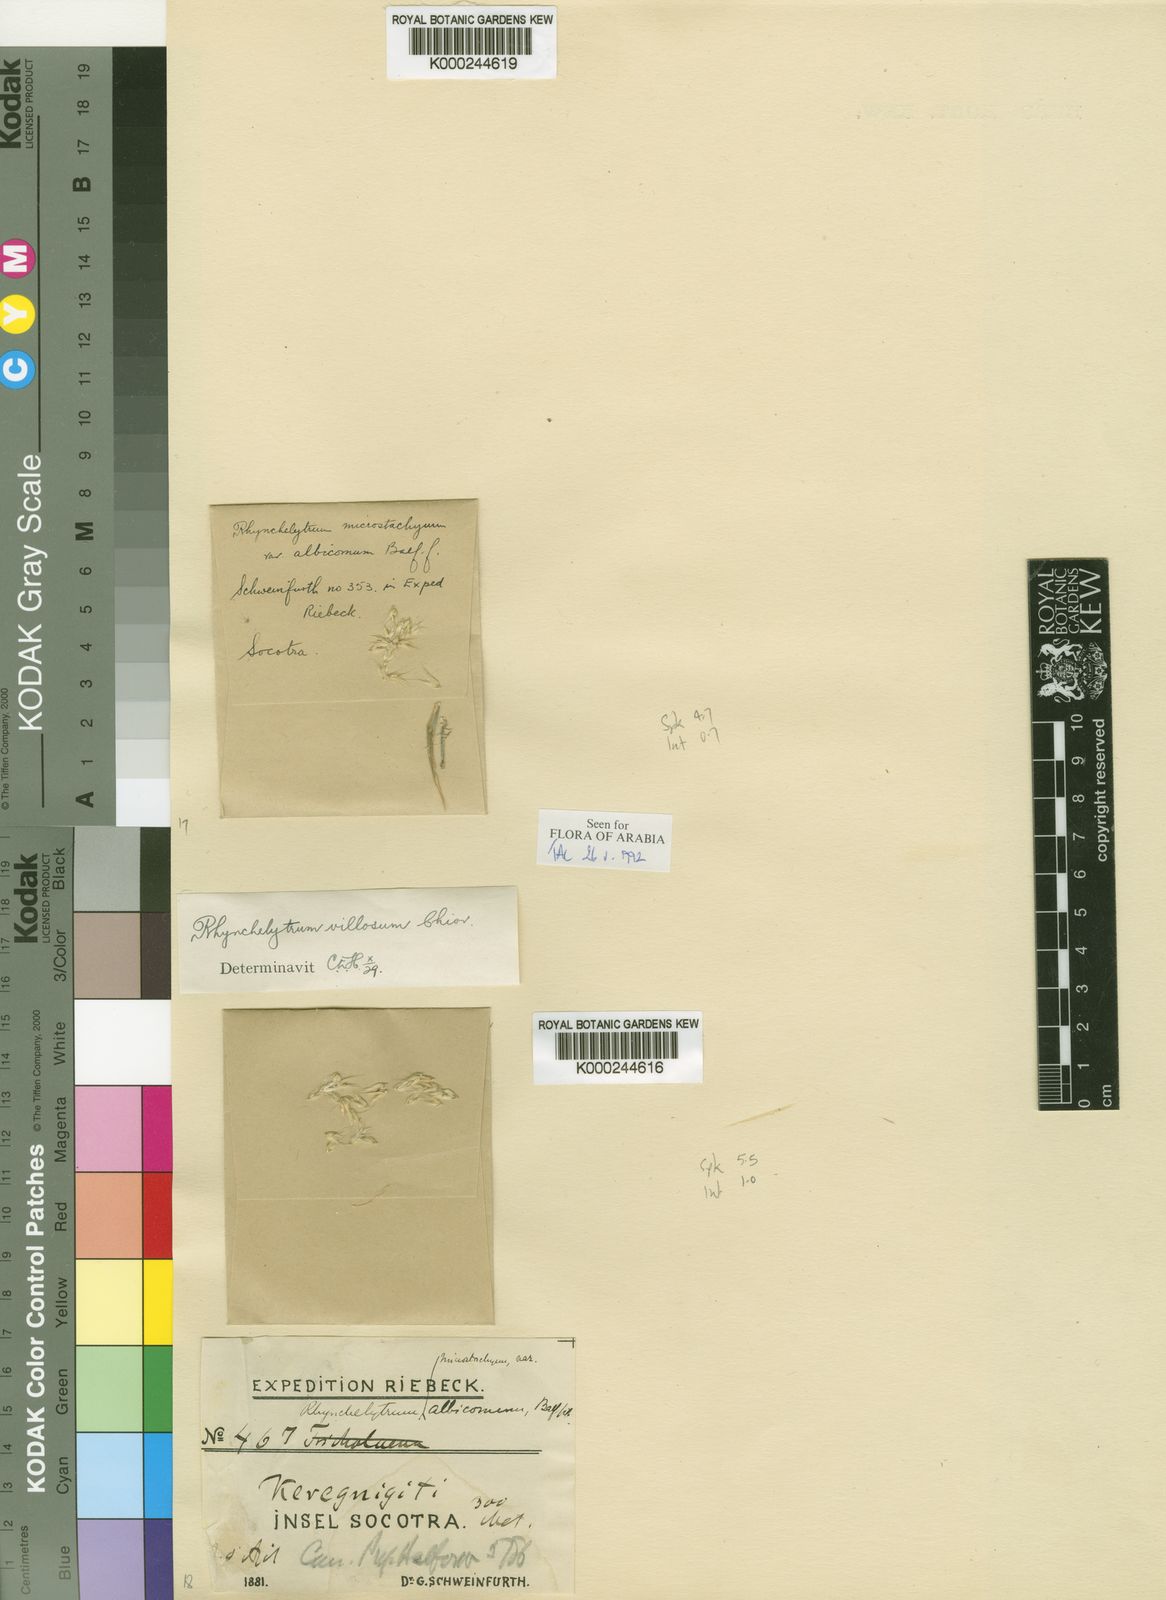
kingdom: Plantae
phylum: Tracheophyta
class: Liliopsida
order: Poales
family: Poaceae
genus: Melinis
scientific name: Melinis repens
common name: Rose natal grass
